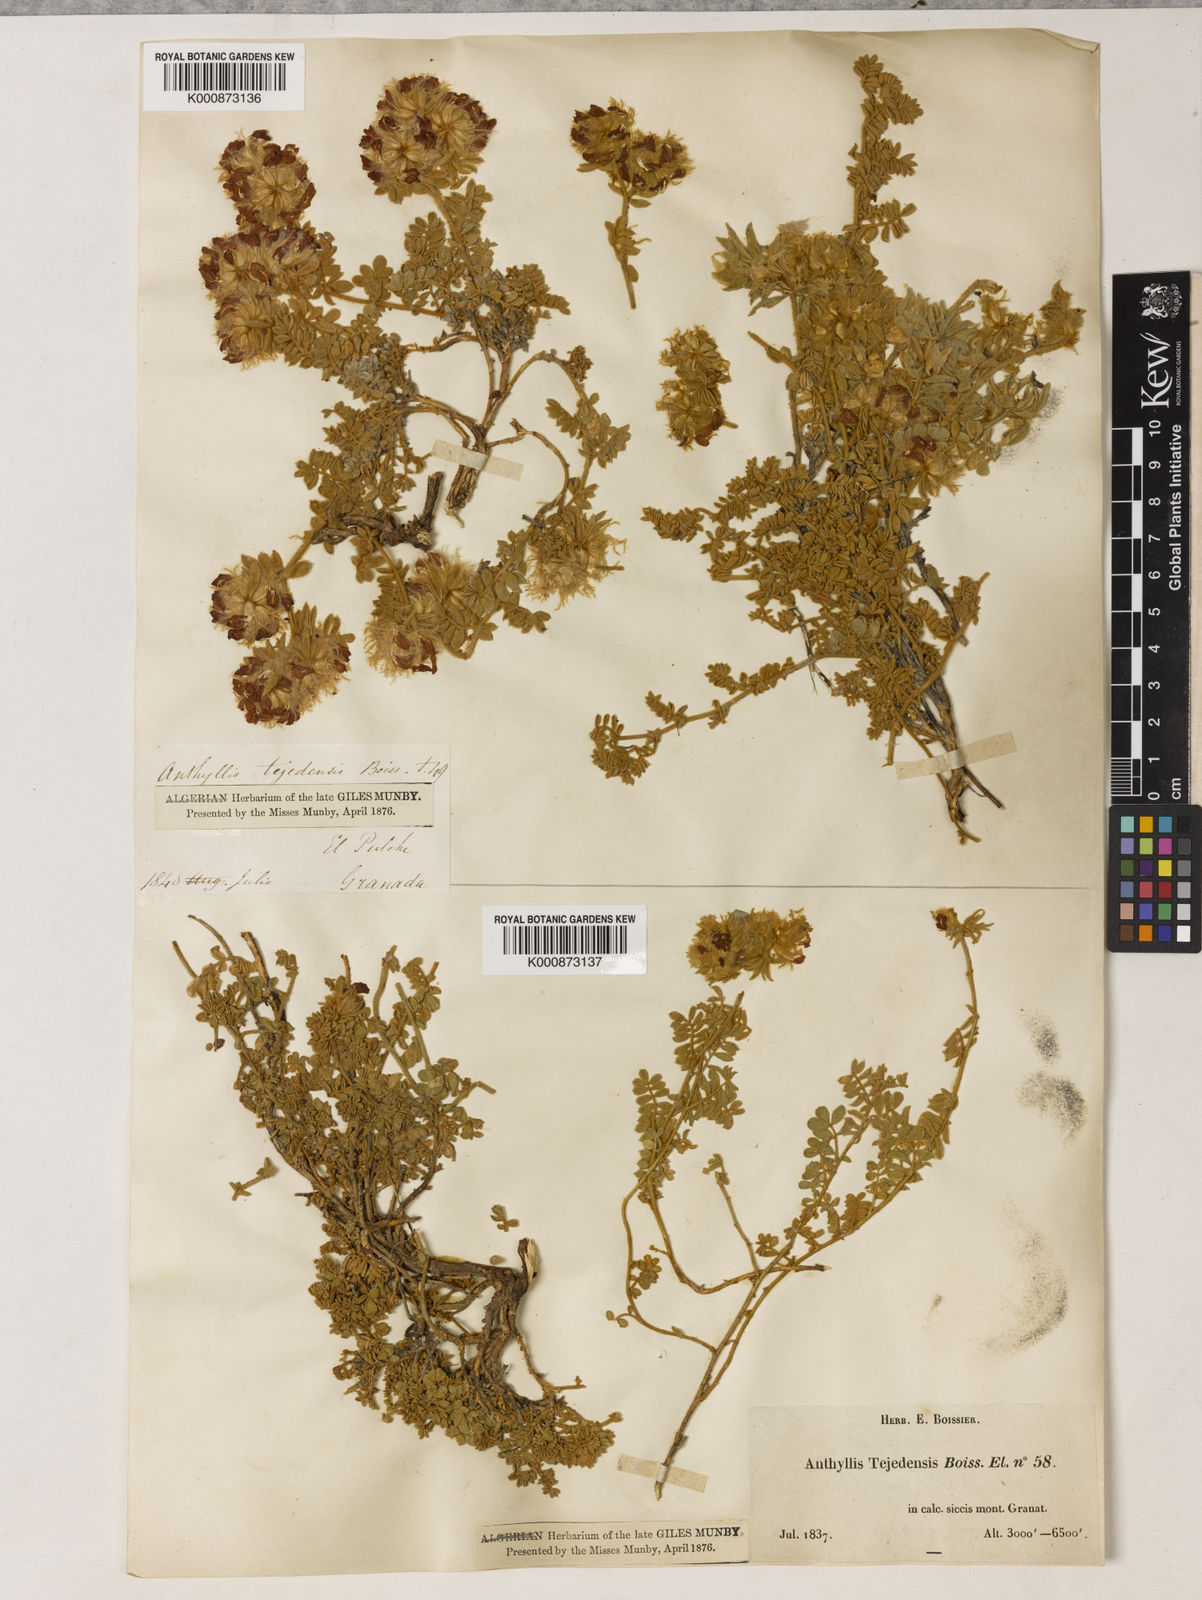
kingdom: Plantae
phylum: Tracheophyta
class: Magnoliopsida
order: Fabales
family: Fabaceae
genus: Anthyllis
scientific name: Anthyllis tejedensis
